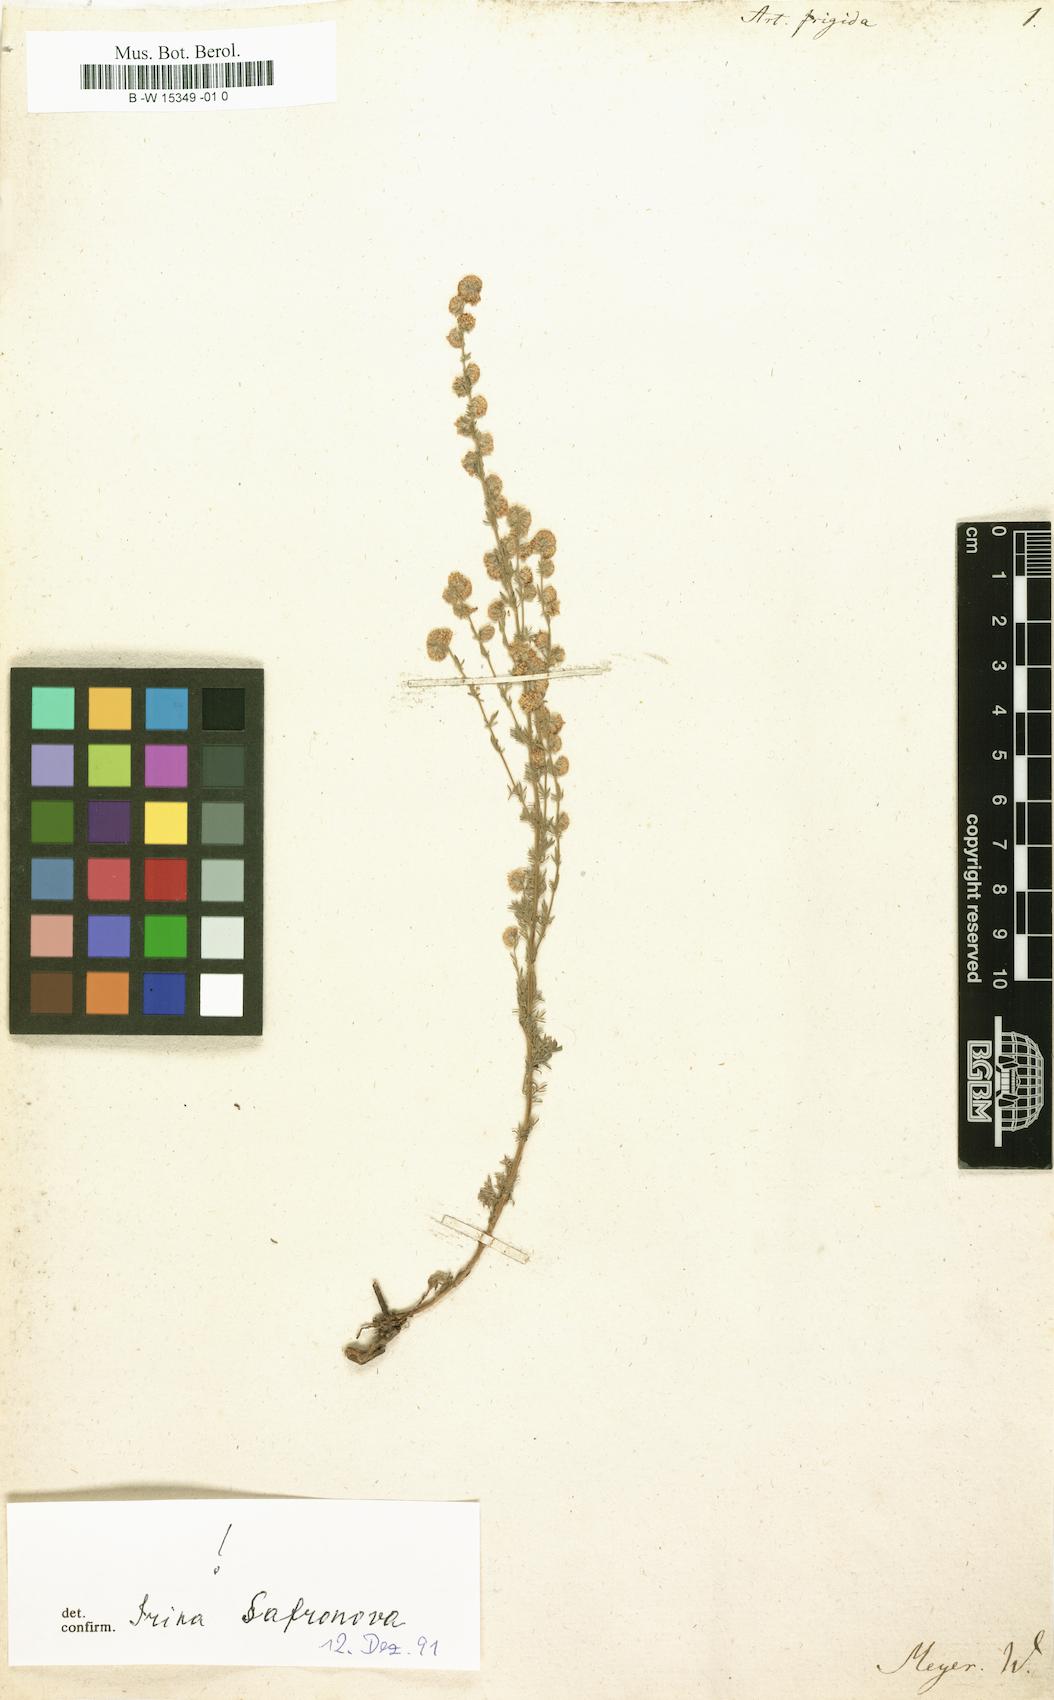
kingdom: Plantae
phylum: Tracheophyta
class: Magnoliopsida
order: Asterales
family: Asteraceae
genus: Artemisia
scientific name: Artemisia frigida
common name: Prairie sagewort
